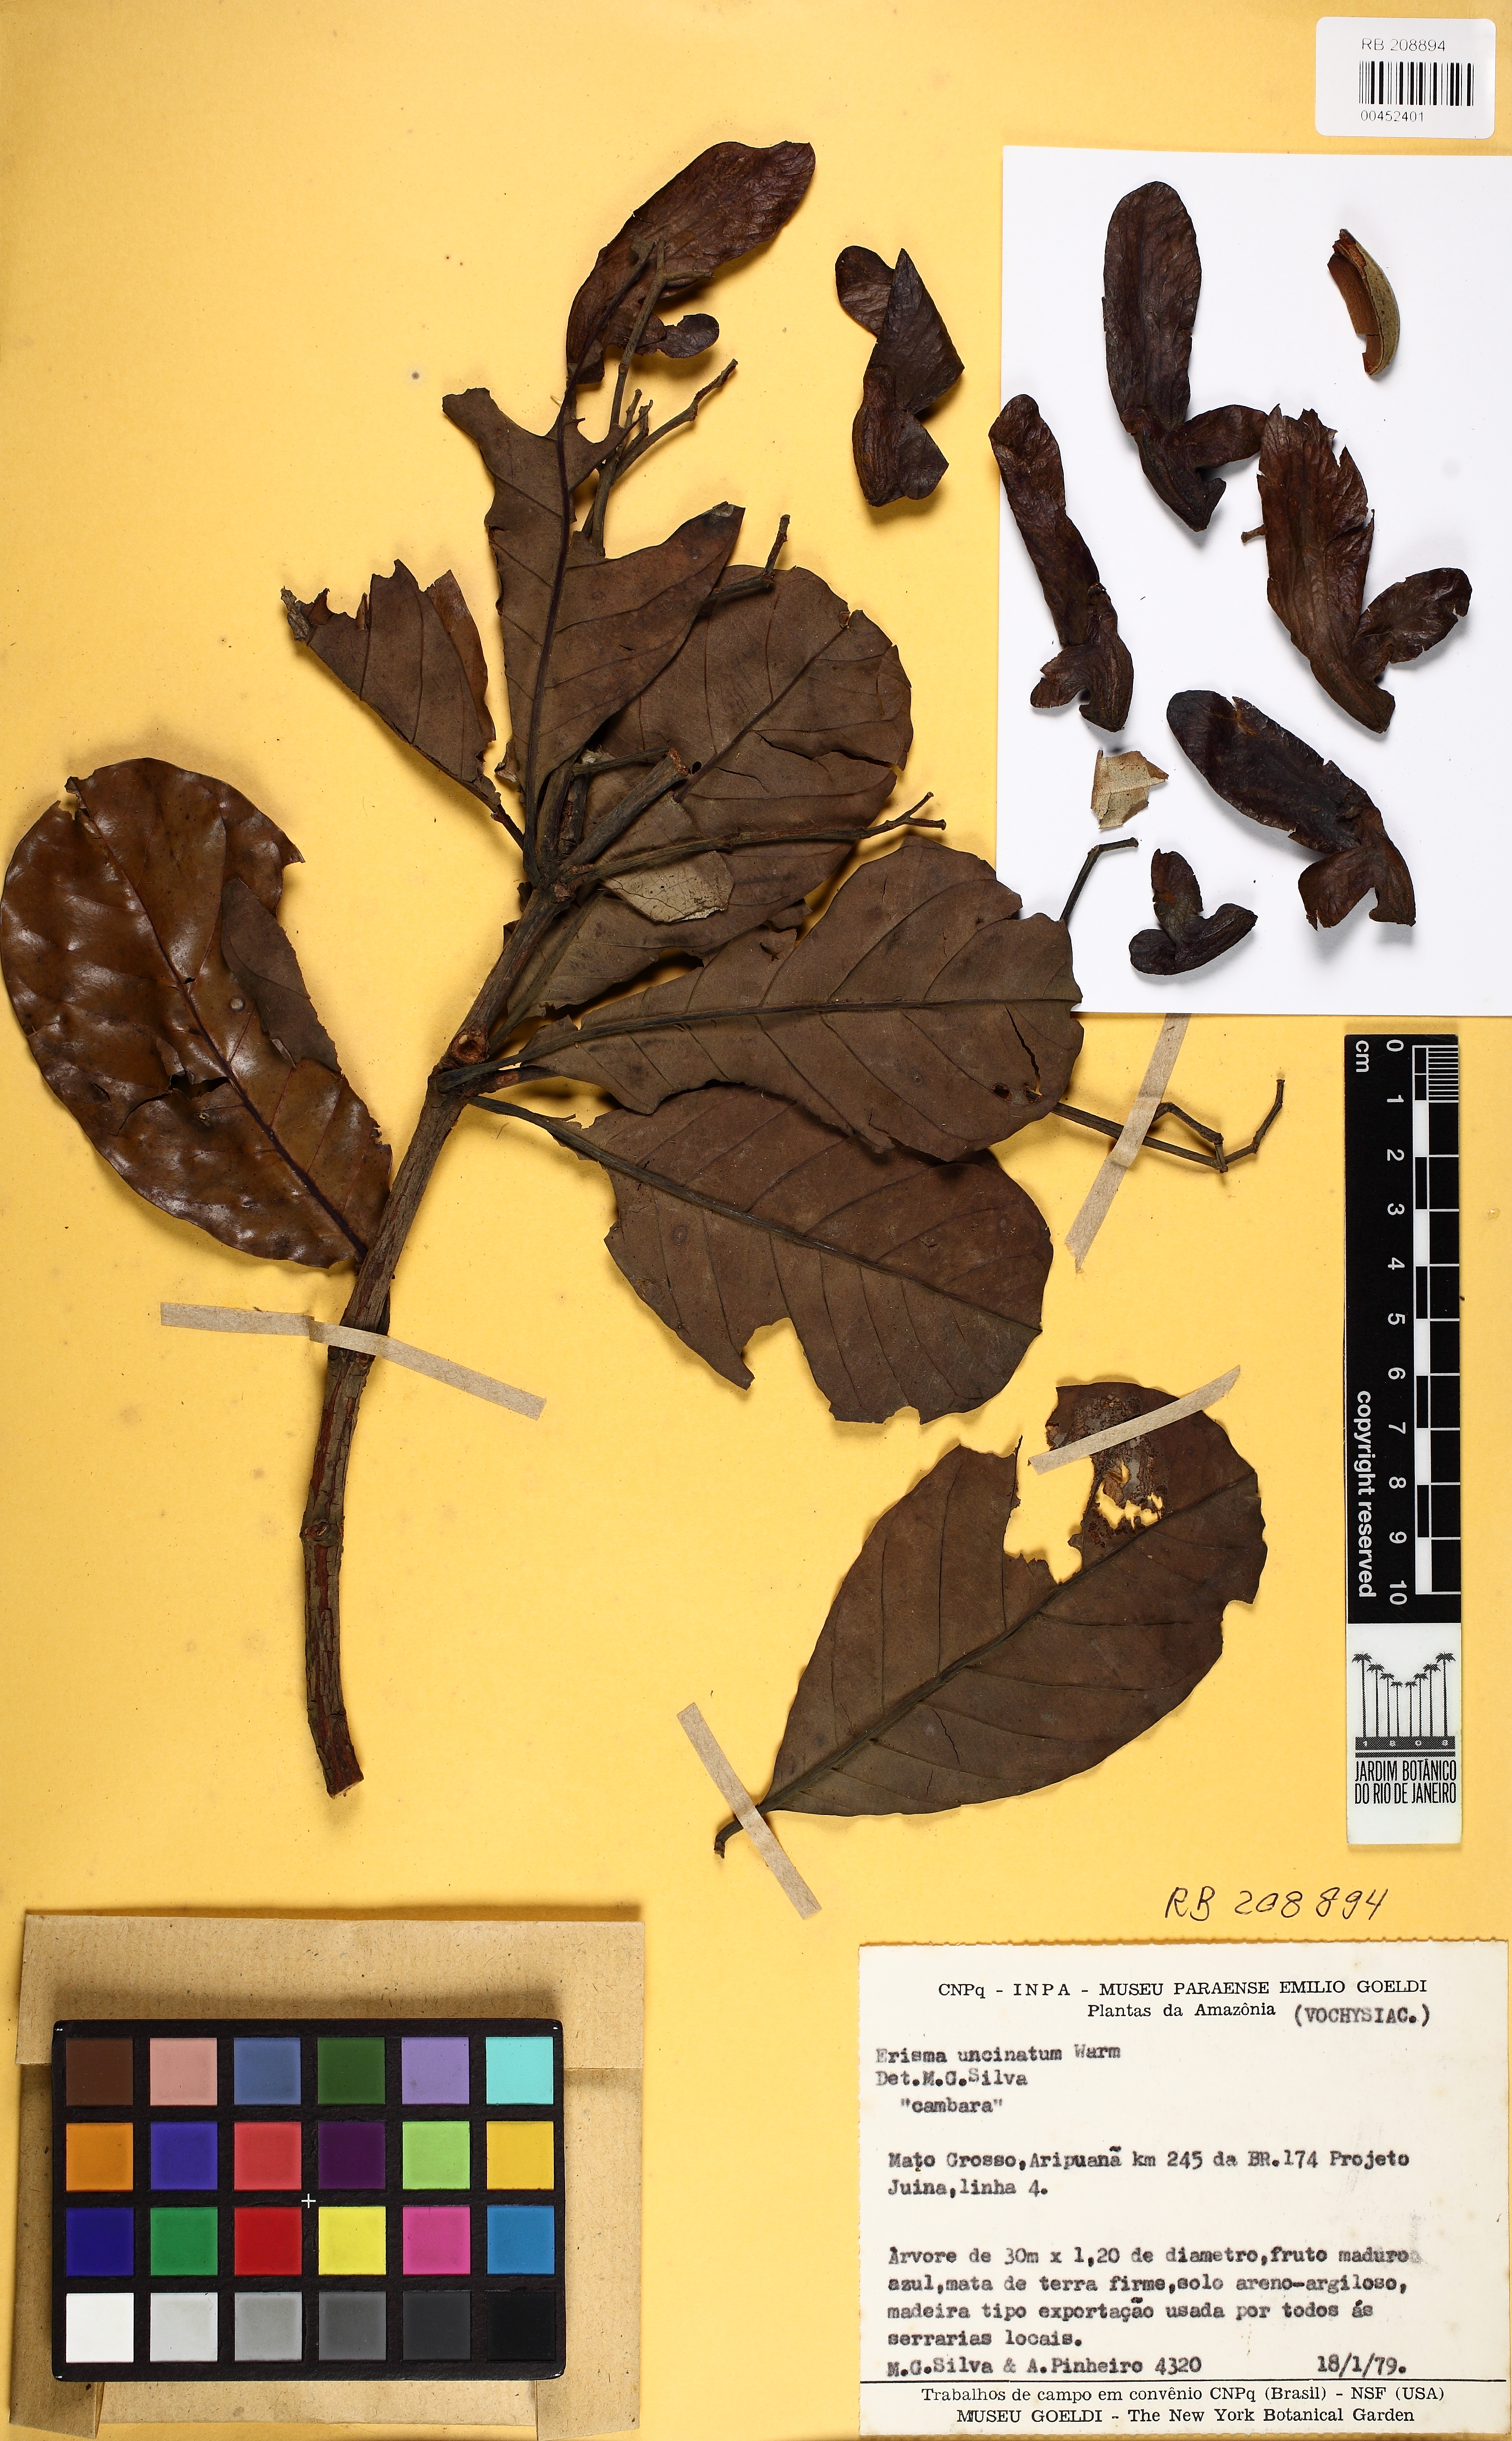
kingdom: Plantae
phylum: Tracheophyta
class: Magnoliopsida
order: Myrtales
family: Vochysiaceae
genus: Erisma
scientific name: Erisma uncinatum
